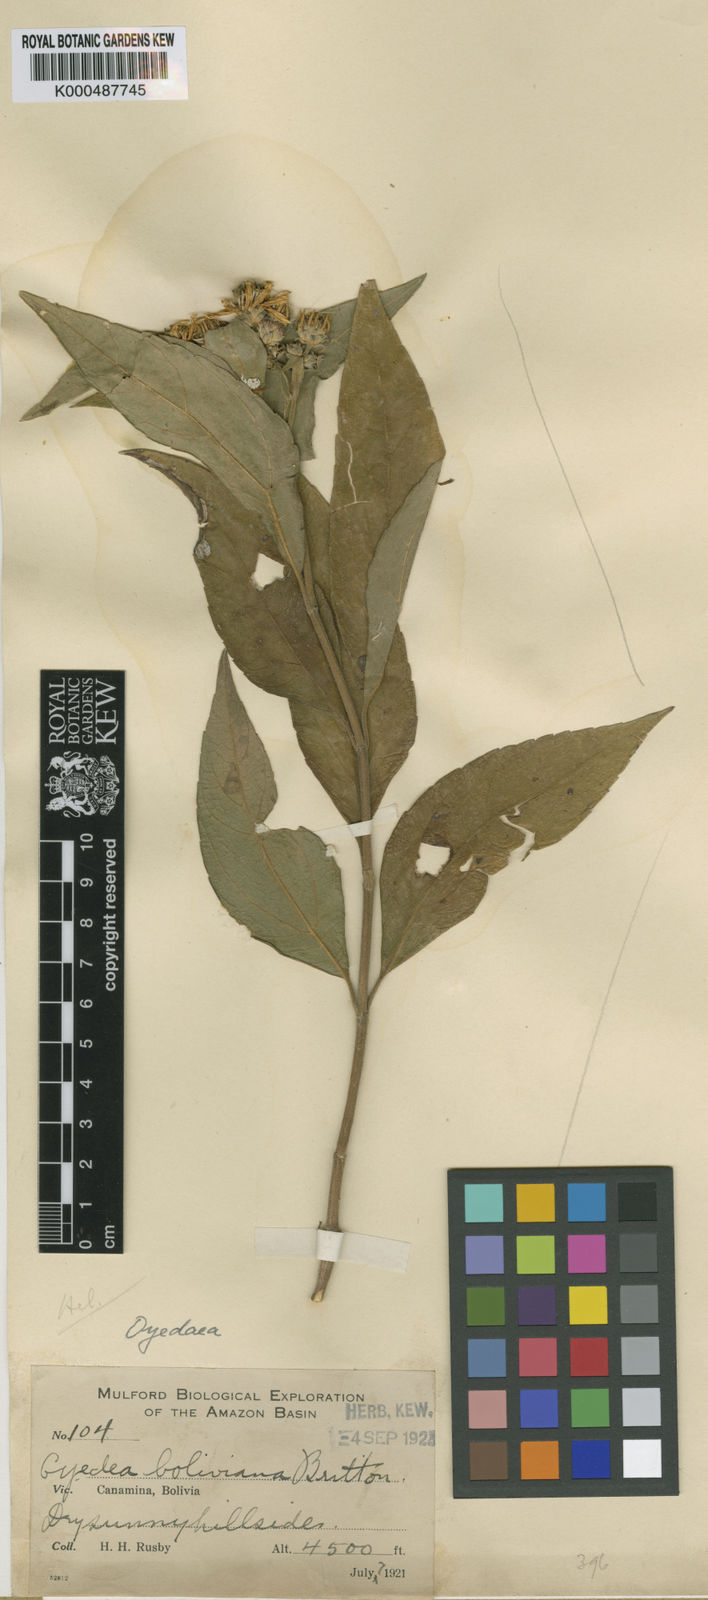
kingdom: Plantae
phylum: Tracheophyta
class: Magnoliopsida
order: Asterales
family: Asteraceae
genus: Oyedaea
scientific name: Oyedaea boliviana
